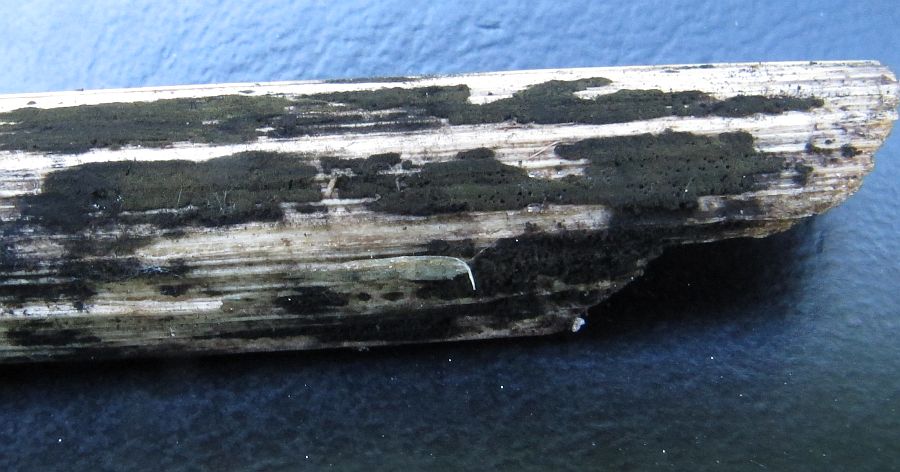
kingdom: Fungi
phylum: Ascomycota
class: Dothideomycetes
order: Pleosporales
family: Torulaceae
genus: Dendryphion
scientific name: Dendryphion comosum
